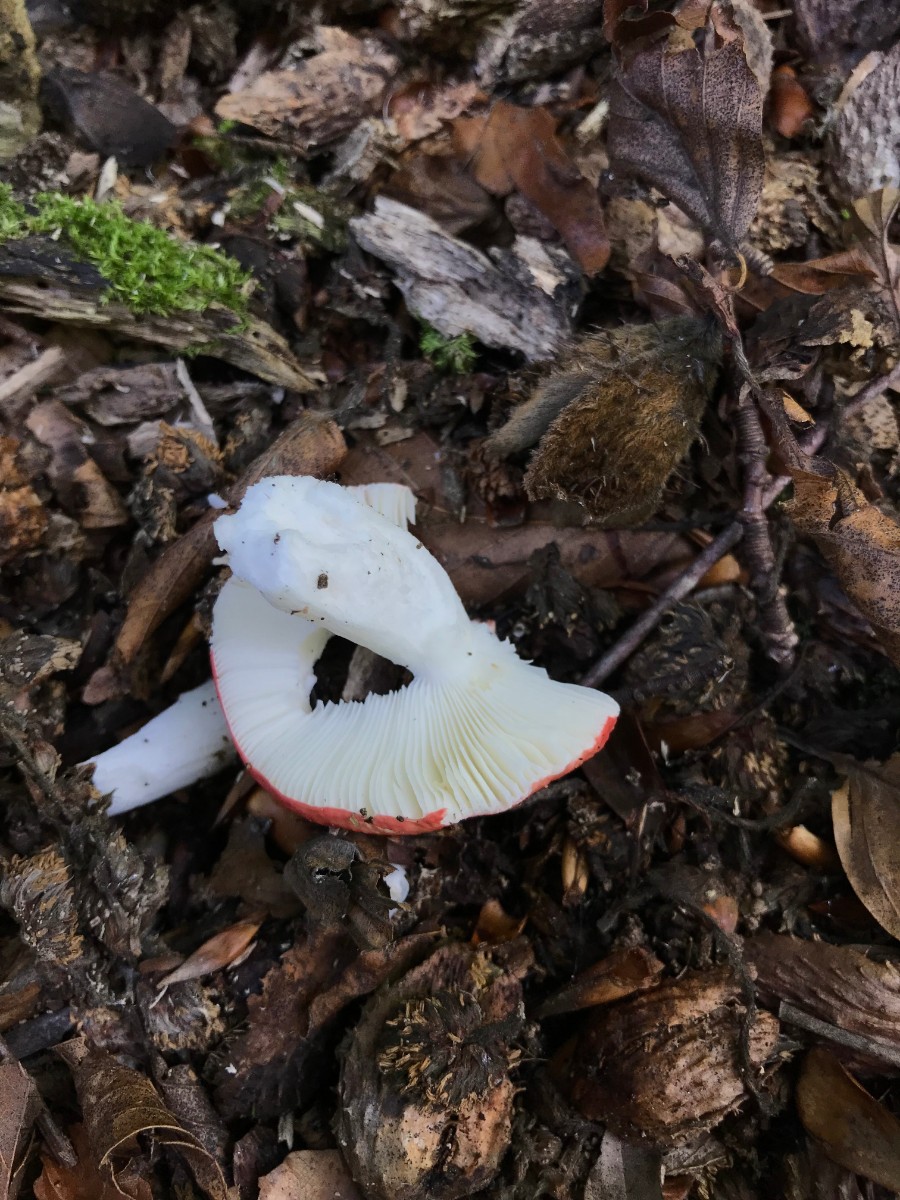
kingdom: Fungi
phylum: Basidiomycota
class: Agaricomycetes
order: Russulales
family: Russulaceae
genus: Russula
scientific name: Russula nobilis
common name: lille gift-skørhat
